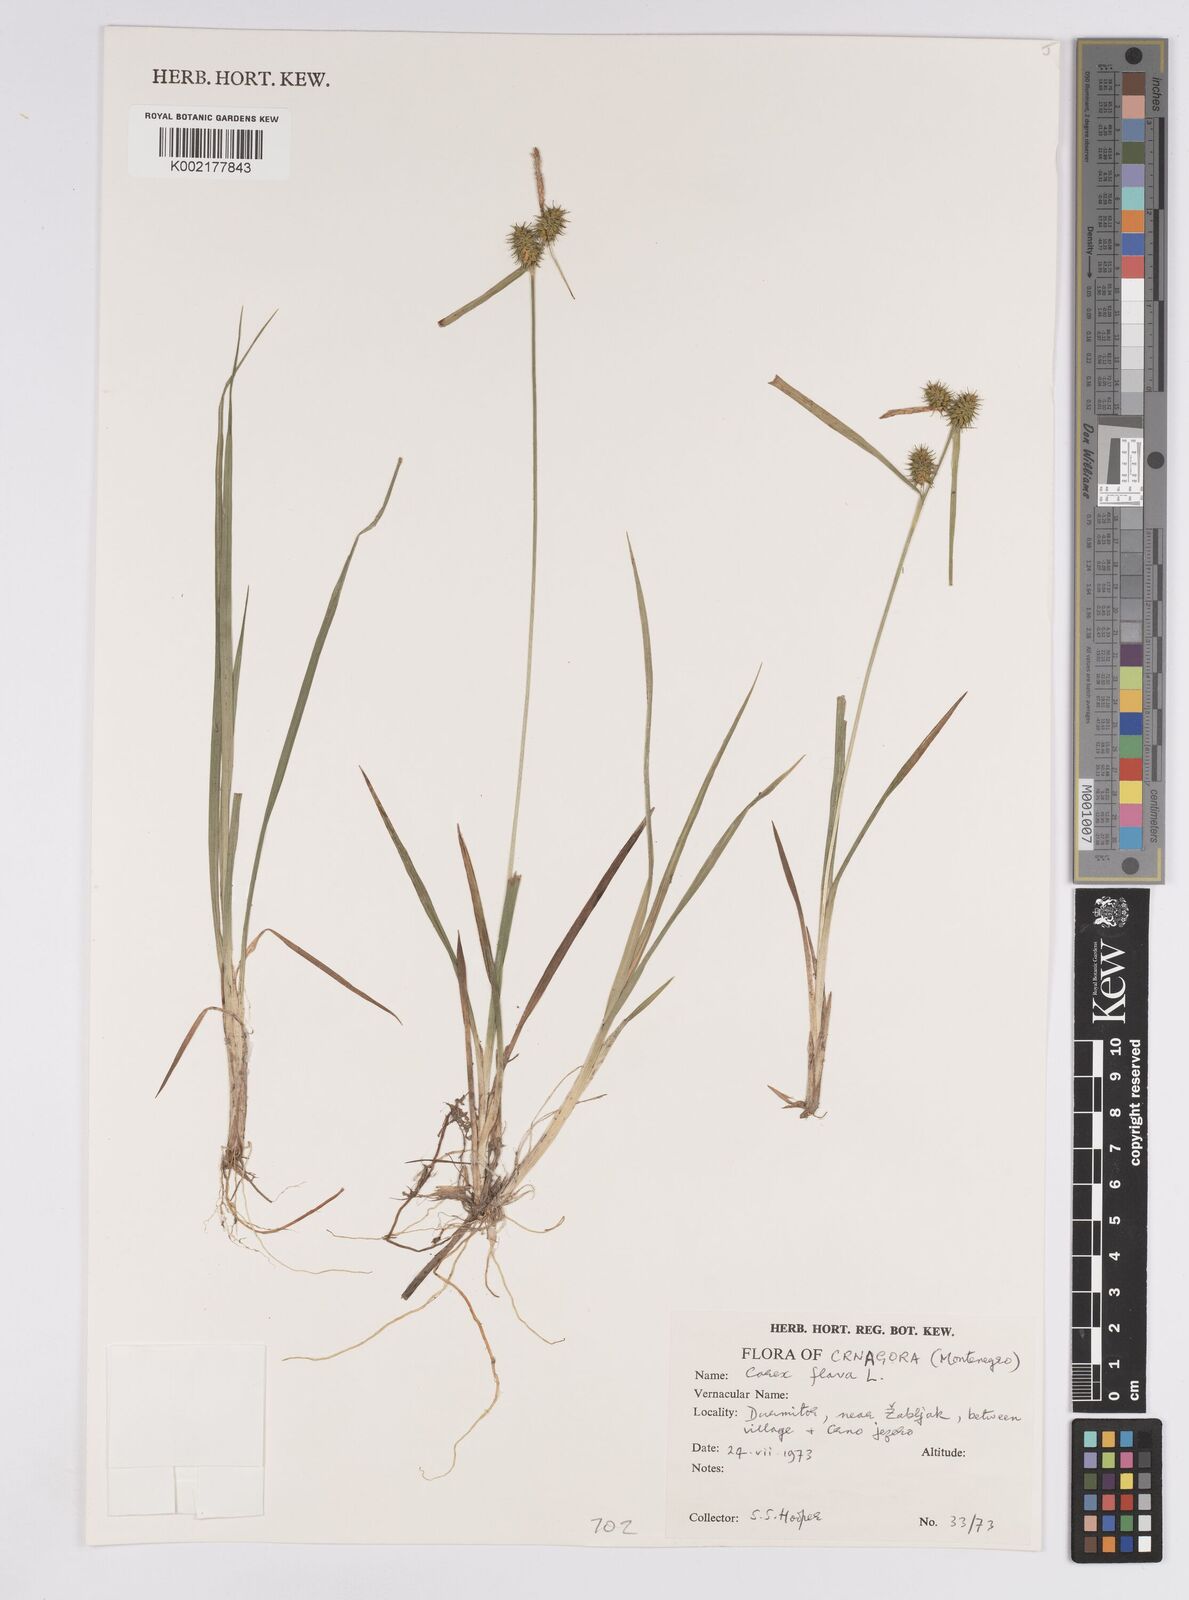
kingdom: Plantae
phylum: Tracheophyta
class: Liliopsida
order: Poales
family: Cyperaceae
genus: Carex
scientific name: Carex flava
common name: Large yellow-sedge
